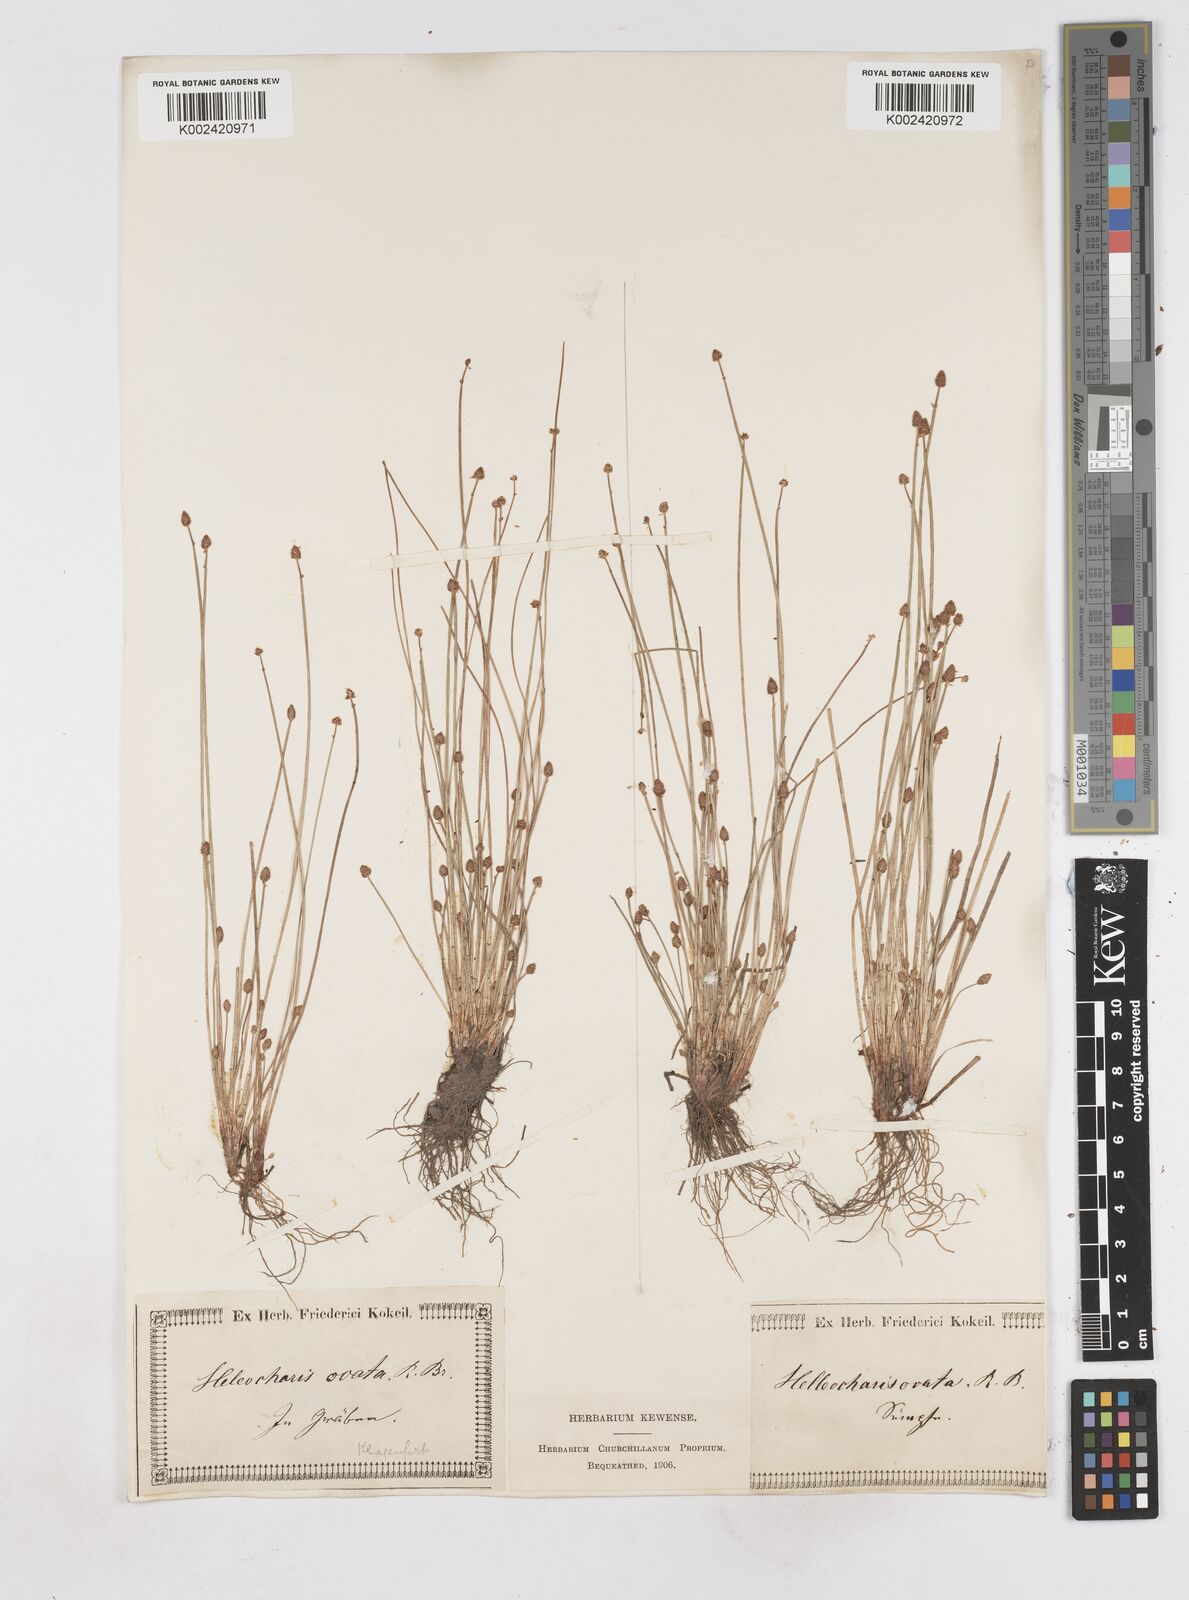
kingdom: Plantae
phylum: Tracheophyta
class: Liliopsida
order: Poales
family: Cyperaceae
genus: Eleocharis
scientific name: Eleocharis ovata
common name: Oval spike-rush
